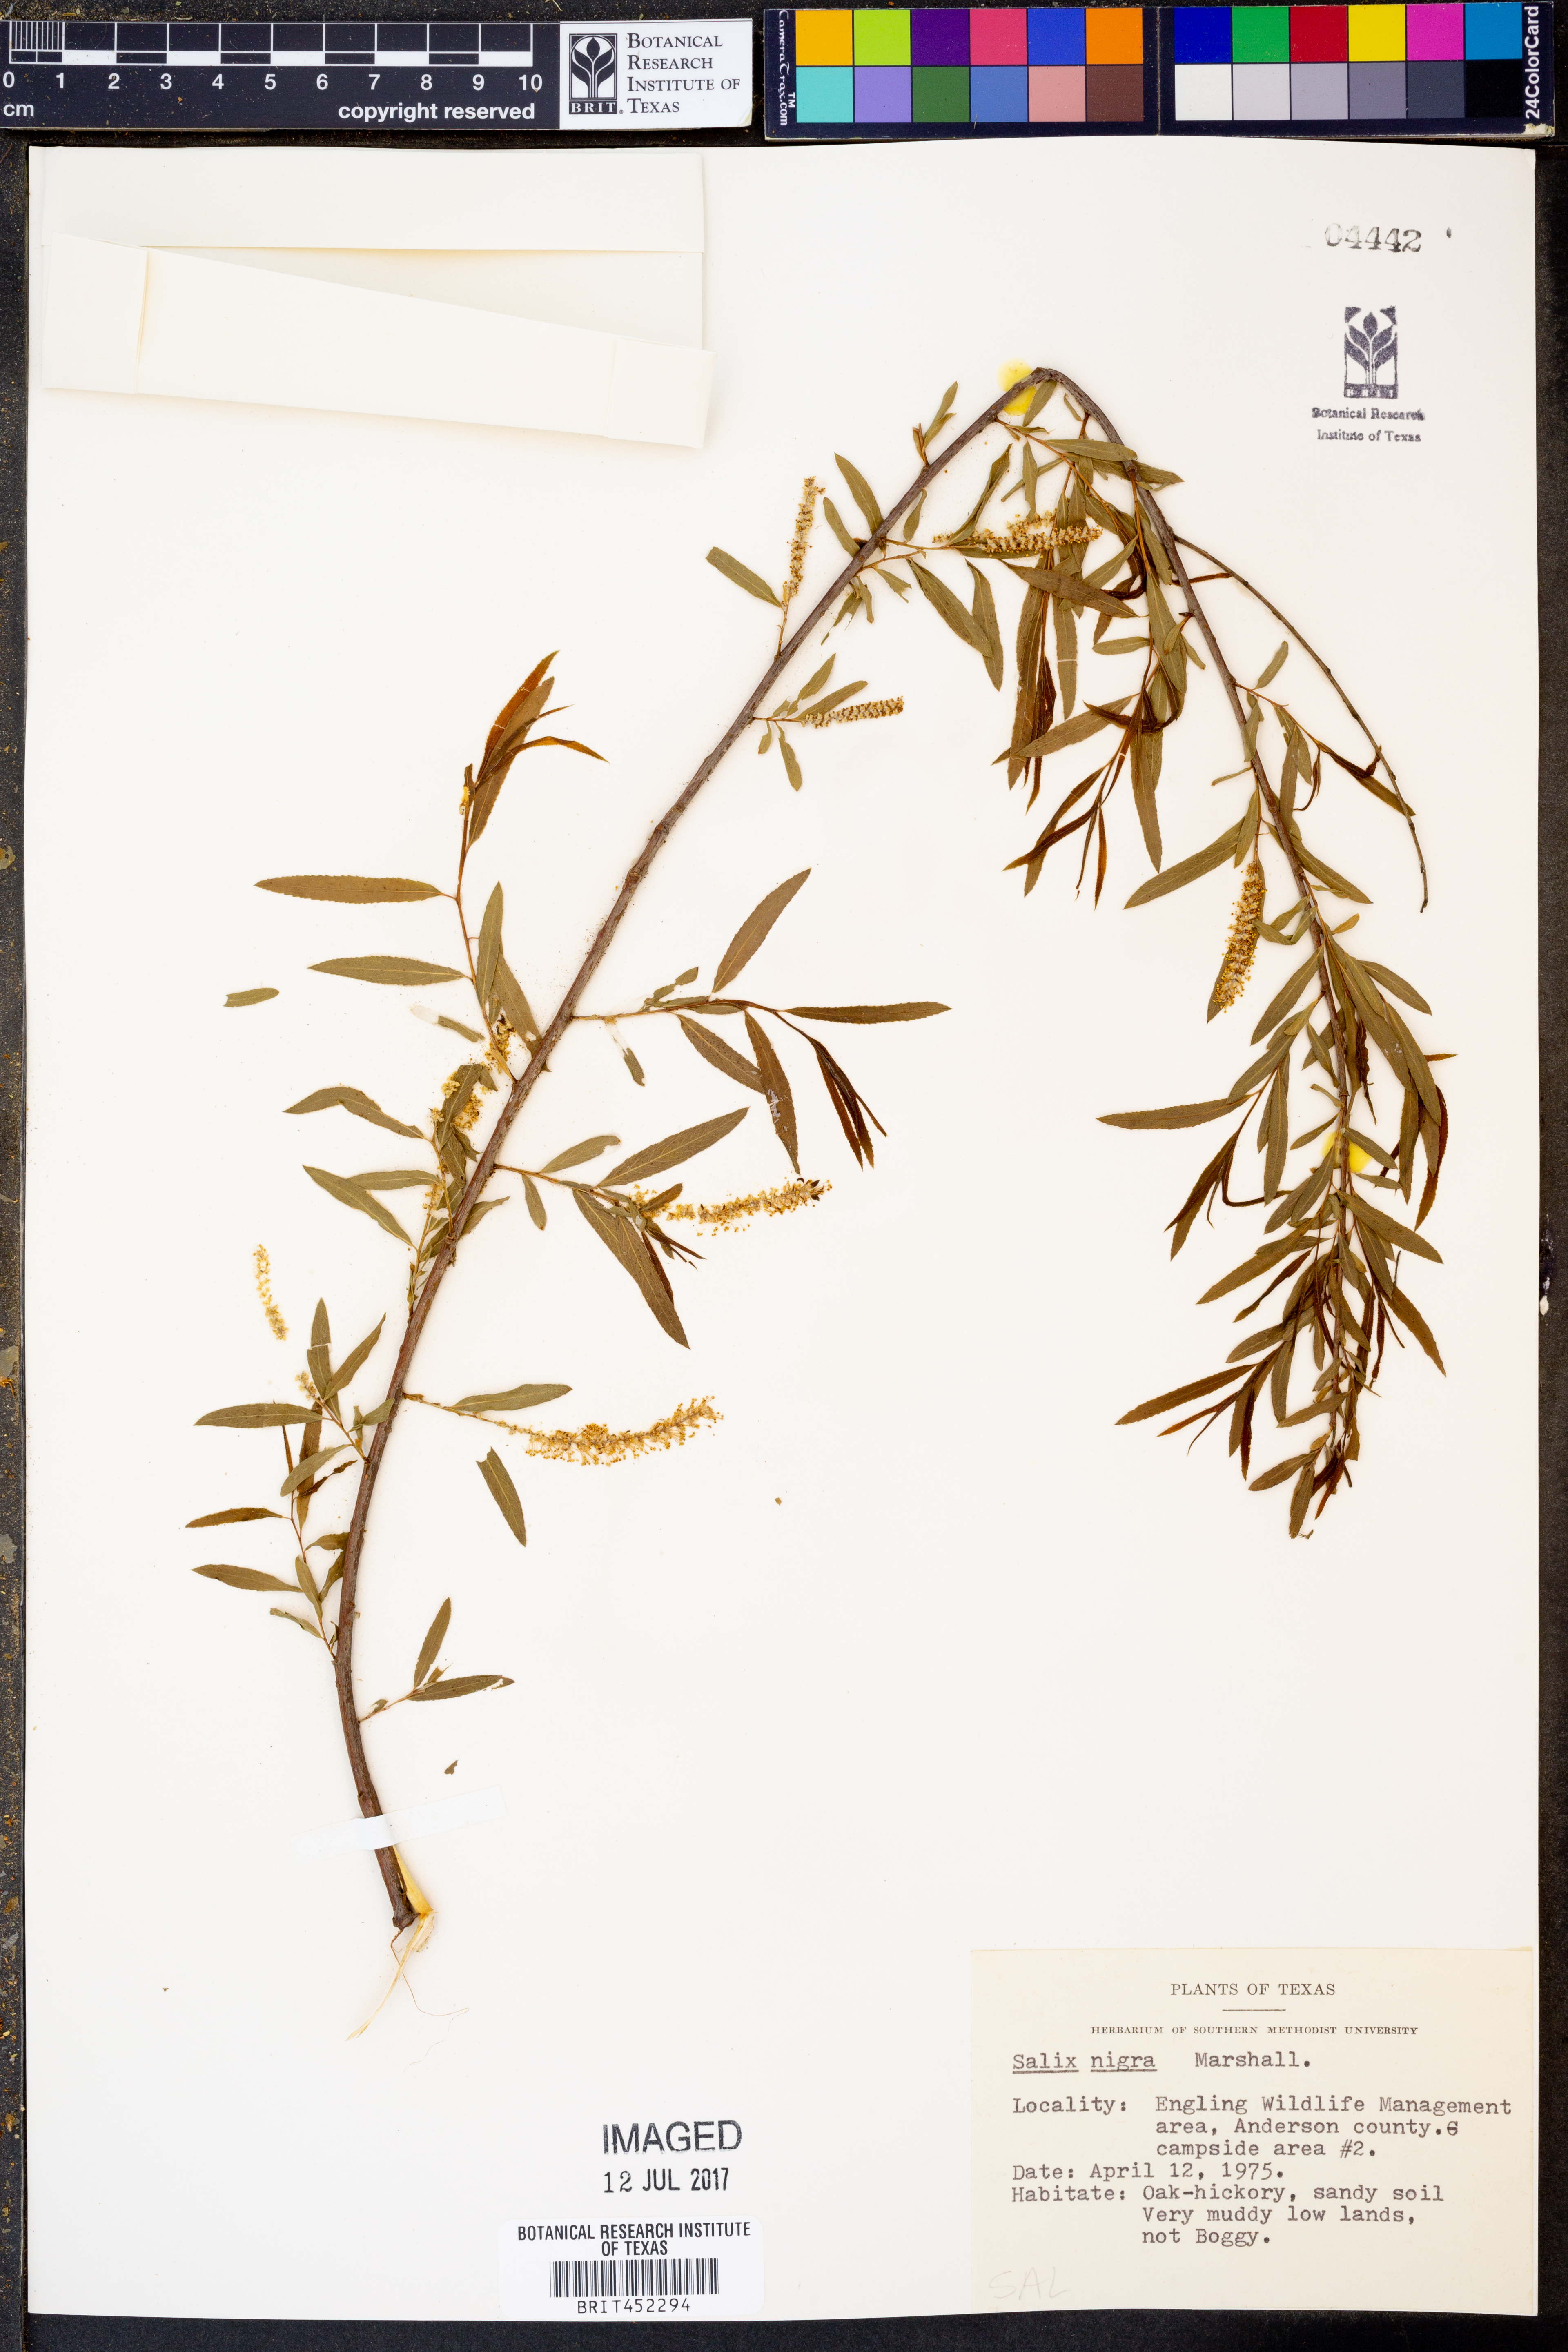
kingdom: Plantae
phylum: Tracheophyta
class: Magnoliopsida
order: Malpighiales
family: Salicaceae
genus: Salix
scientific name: Salix nigra
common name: Black willow
